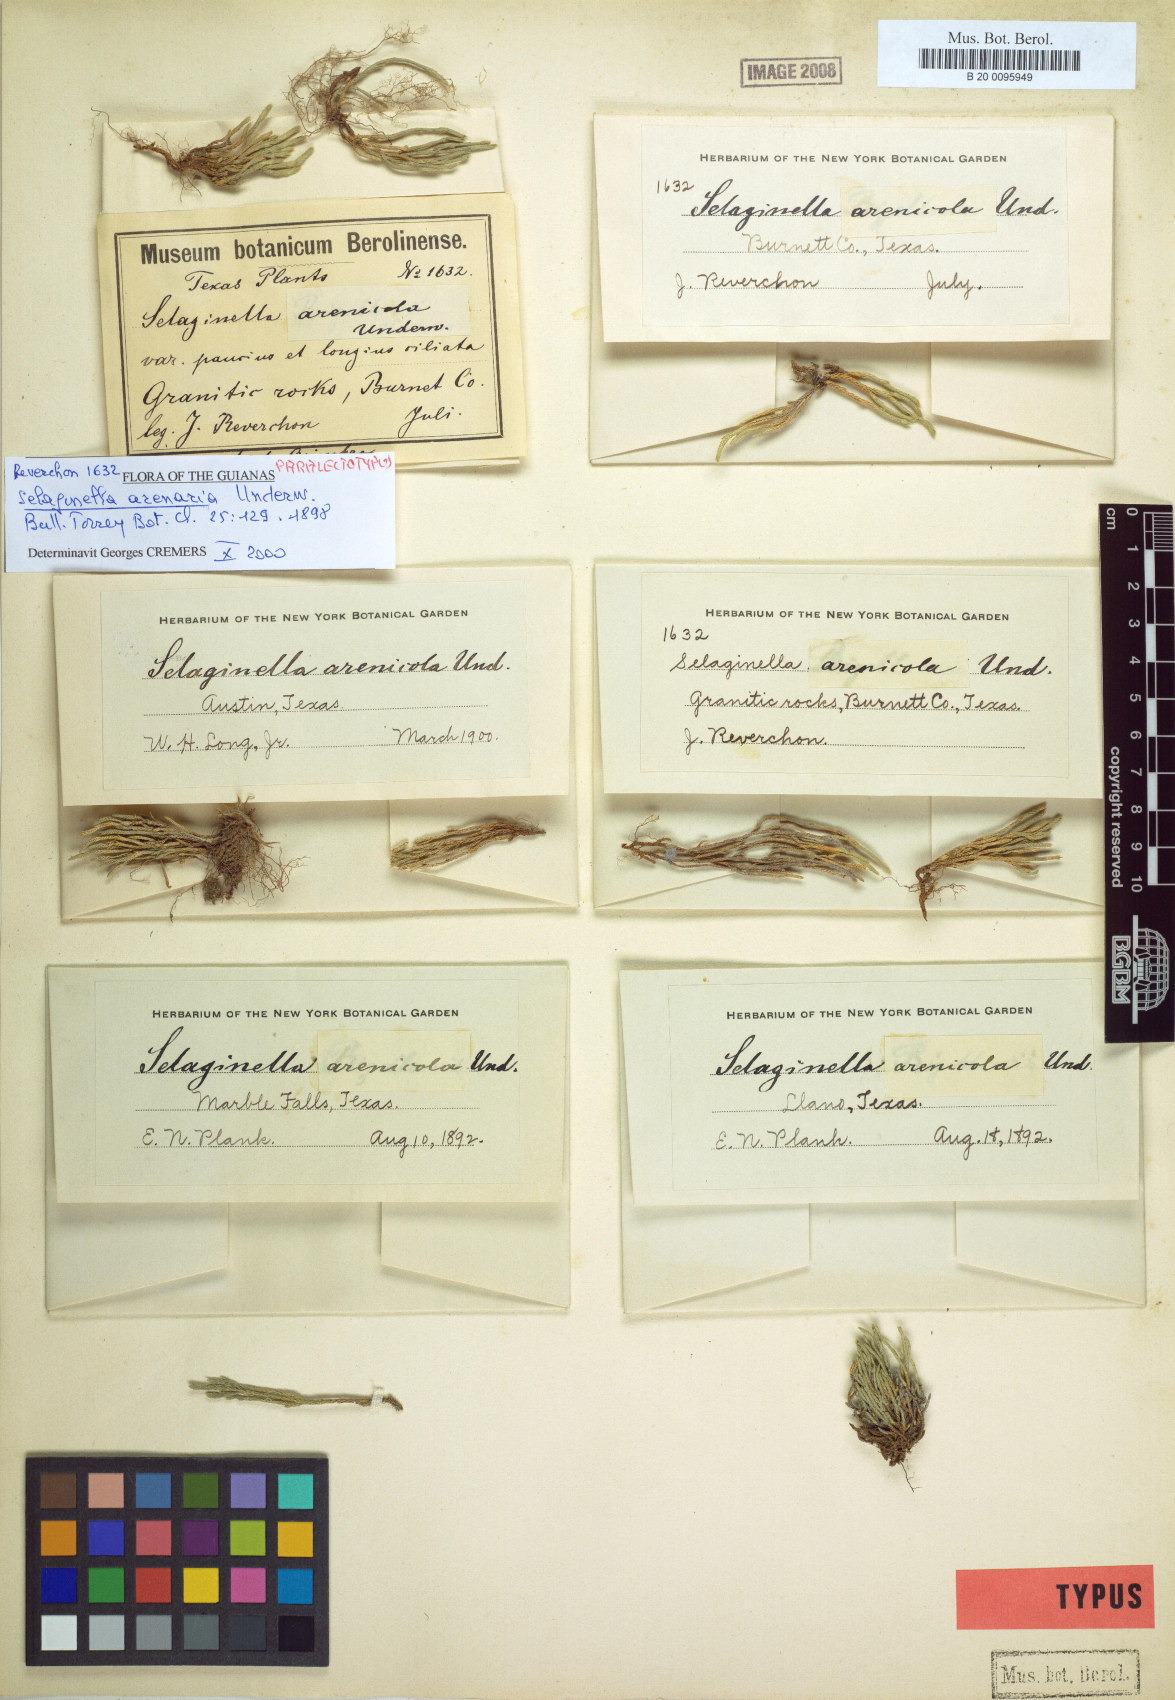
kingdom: Plantae
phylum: Tracheophyta
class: Lycopodiopsida
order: Selaginellales
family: Selaginellaceae
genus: Selaginella
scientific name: Selaginella arenicola
